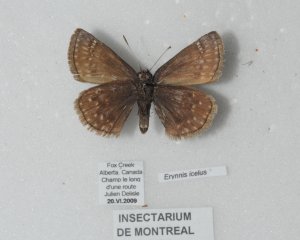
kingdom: Animalia
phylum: Arthropoda
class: Insecta
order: Lepidoptera
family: Hesperiidae
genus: Erynnis
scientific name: Erynnis icelus
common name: Dreamy Duskywing
